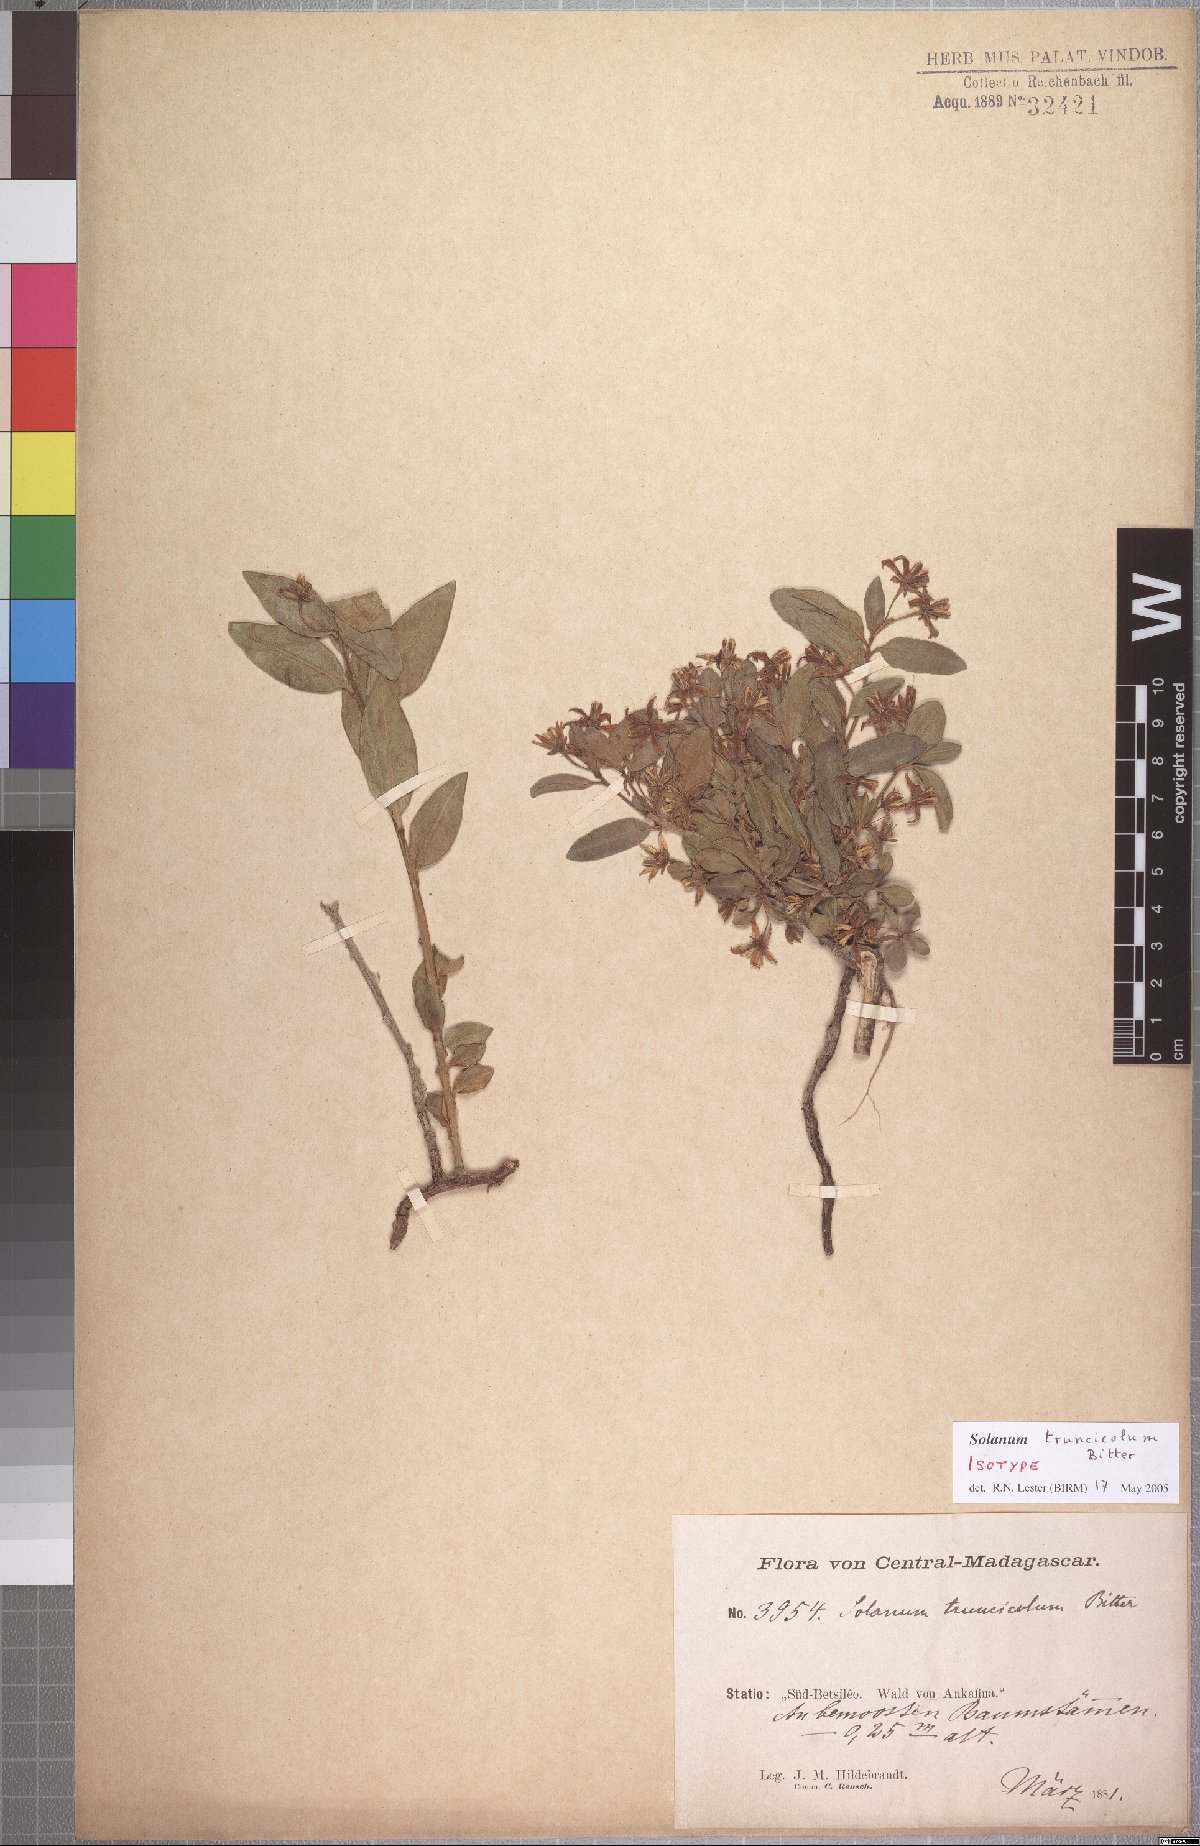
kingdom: Plantae
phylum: Tracheophyta
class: Magnoliopsida
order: Solanales
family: Solanaceae
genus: Solanum
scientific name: Solanum humblotii
